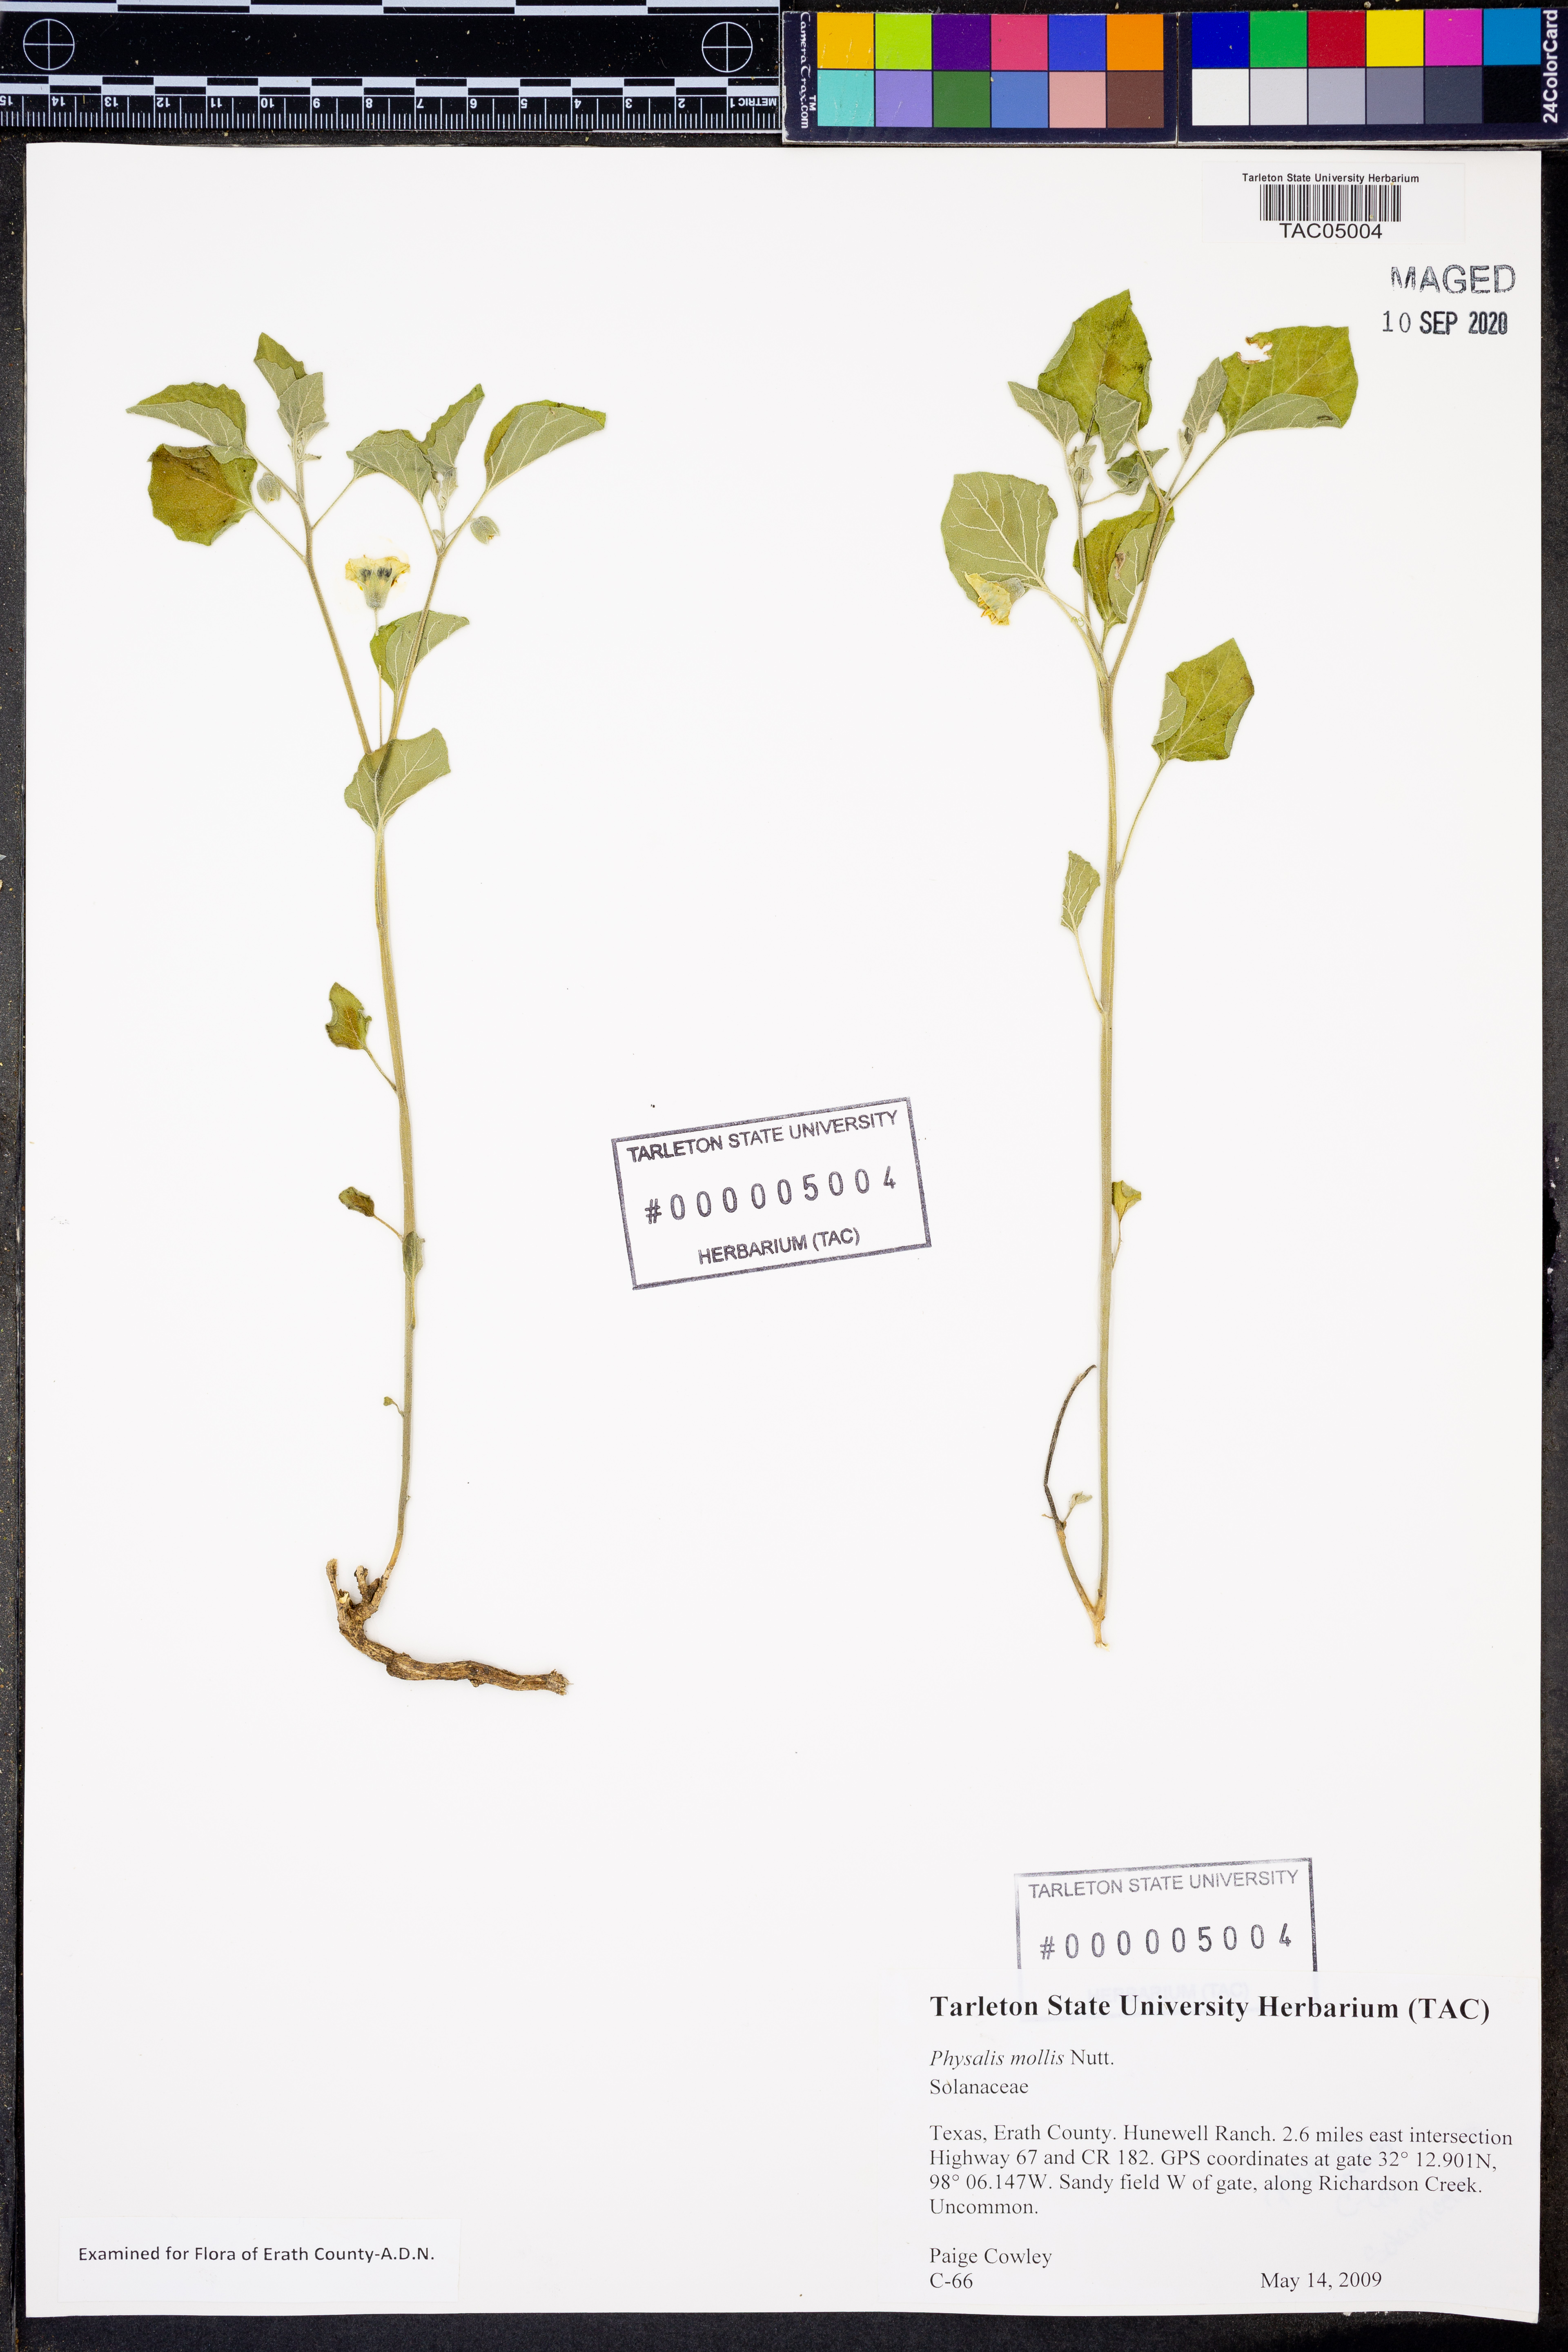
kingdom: Plantae
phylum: Tracheophyta
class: Magnoliopsida
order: Solanales
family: Solanaceae
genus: Physalis
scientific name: Physalis mollis
